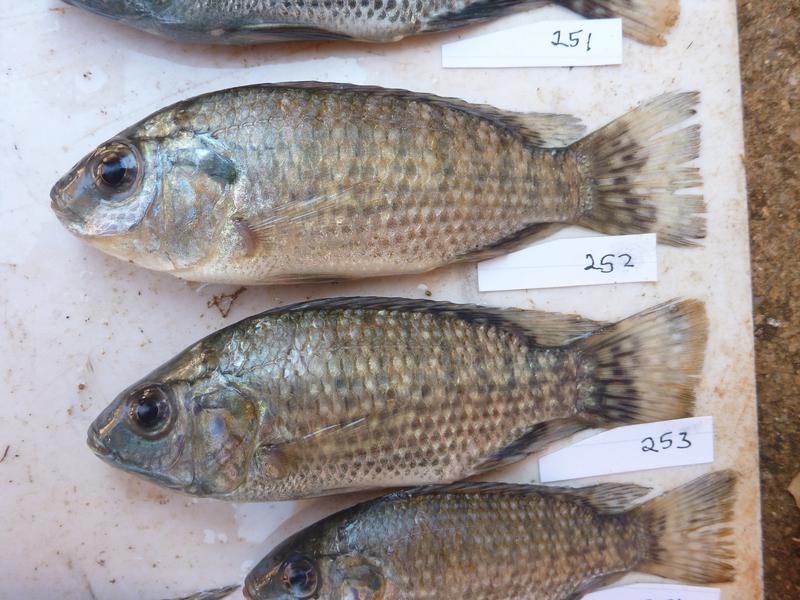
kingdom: Animalia
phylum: Chordata
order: Perciformes
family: Cichlidae
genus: Oreochromis
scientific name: Oreochromis leucostictus
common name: Blue spotted tilapia
